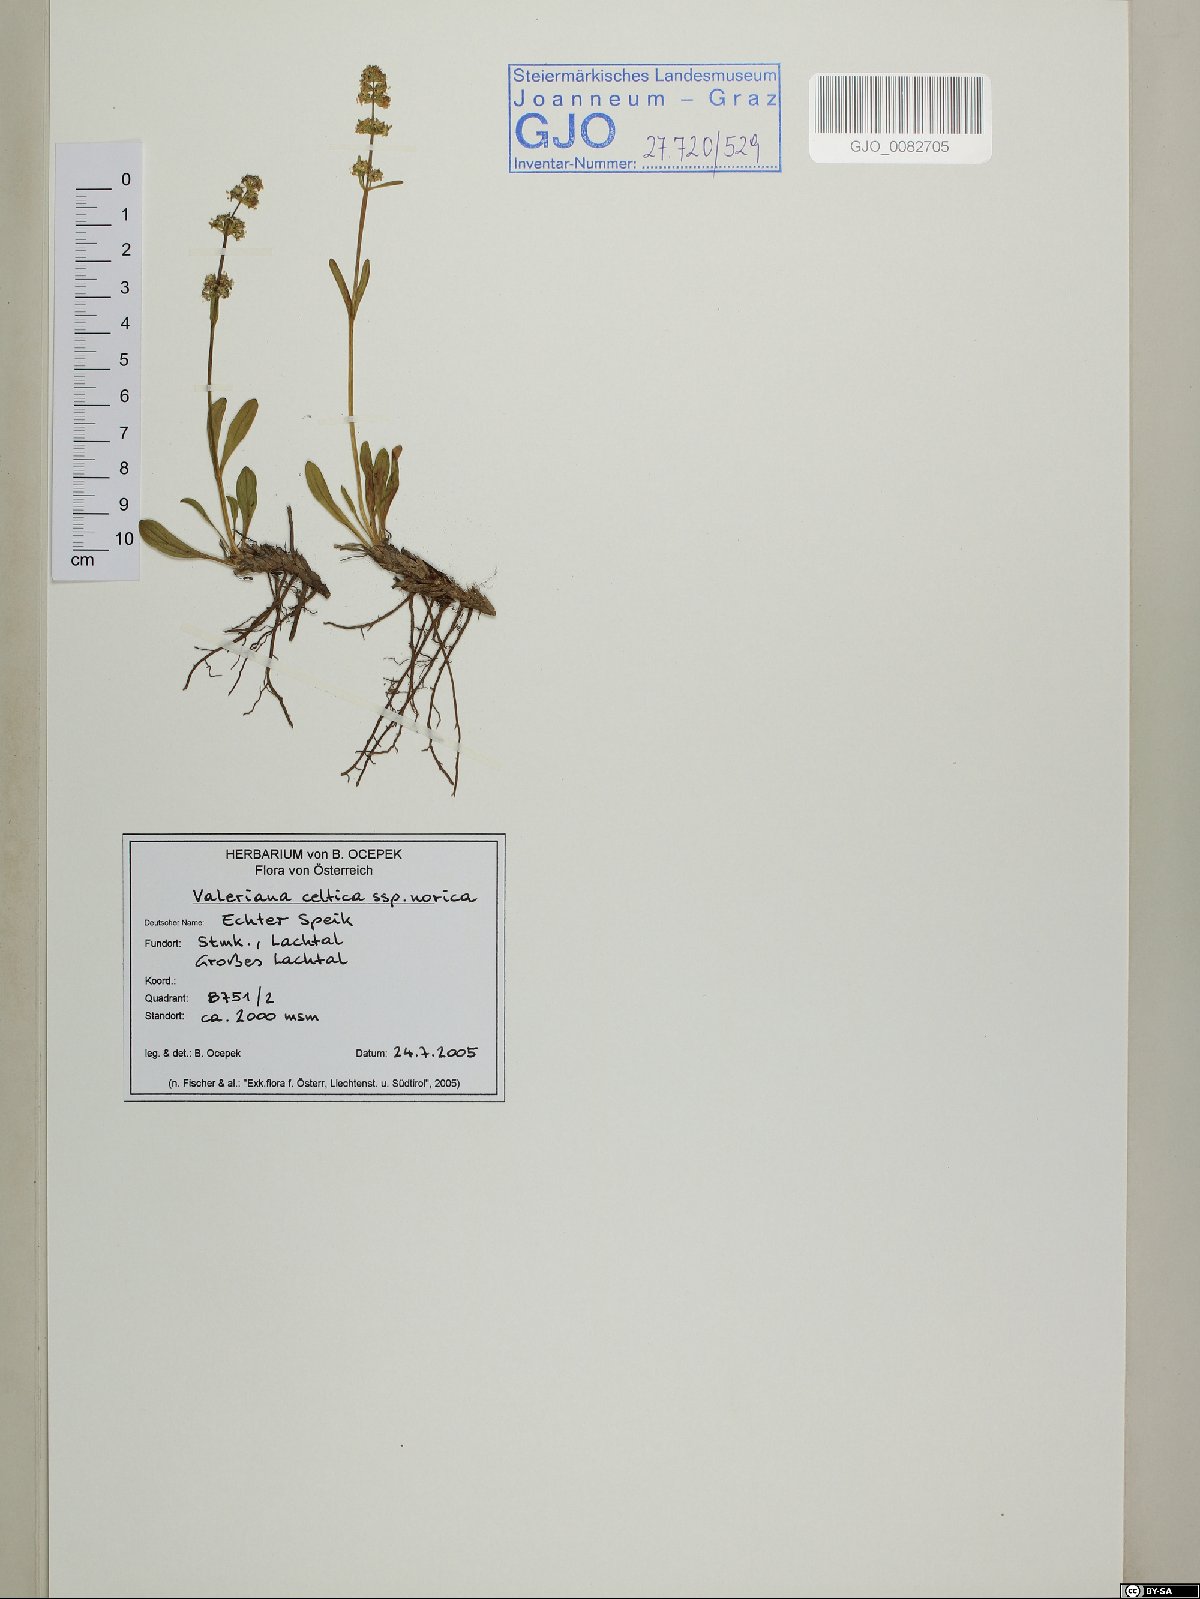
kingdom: Plantae
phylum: Tracheophyta
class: Magnoliopsida
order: Dipsacales
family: Caprifoliaceae
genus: Valeriana
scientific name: Valeriana celtica
